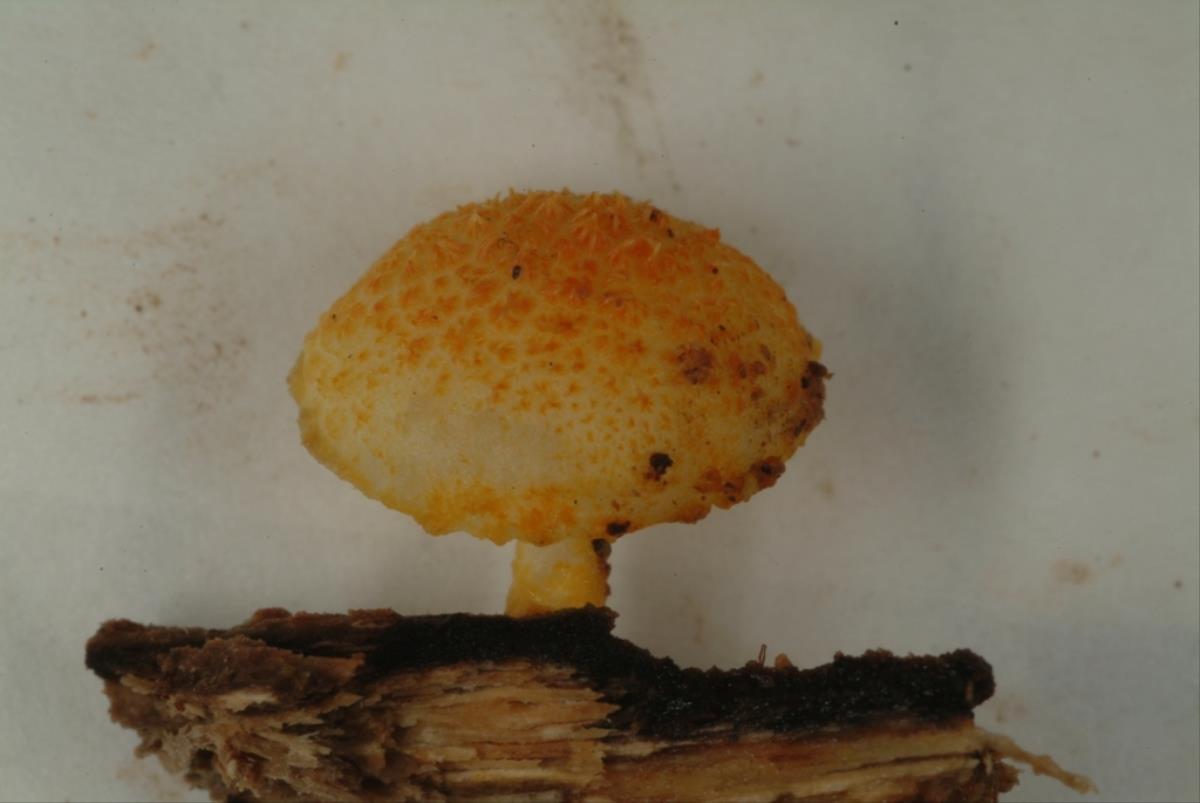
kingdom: Fungi
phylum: Basidiomycota
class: Agaricomycetes
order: Agaricales
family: Physalacriaceae
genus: Cyptotrama
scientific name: Cyptotrama asprata
